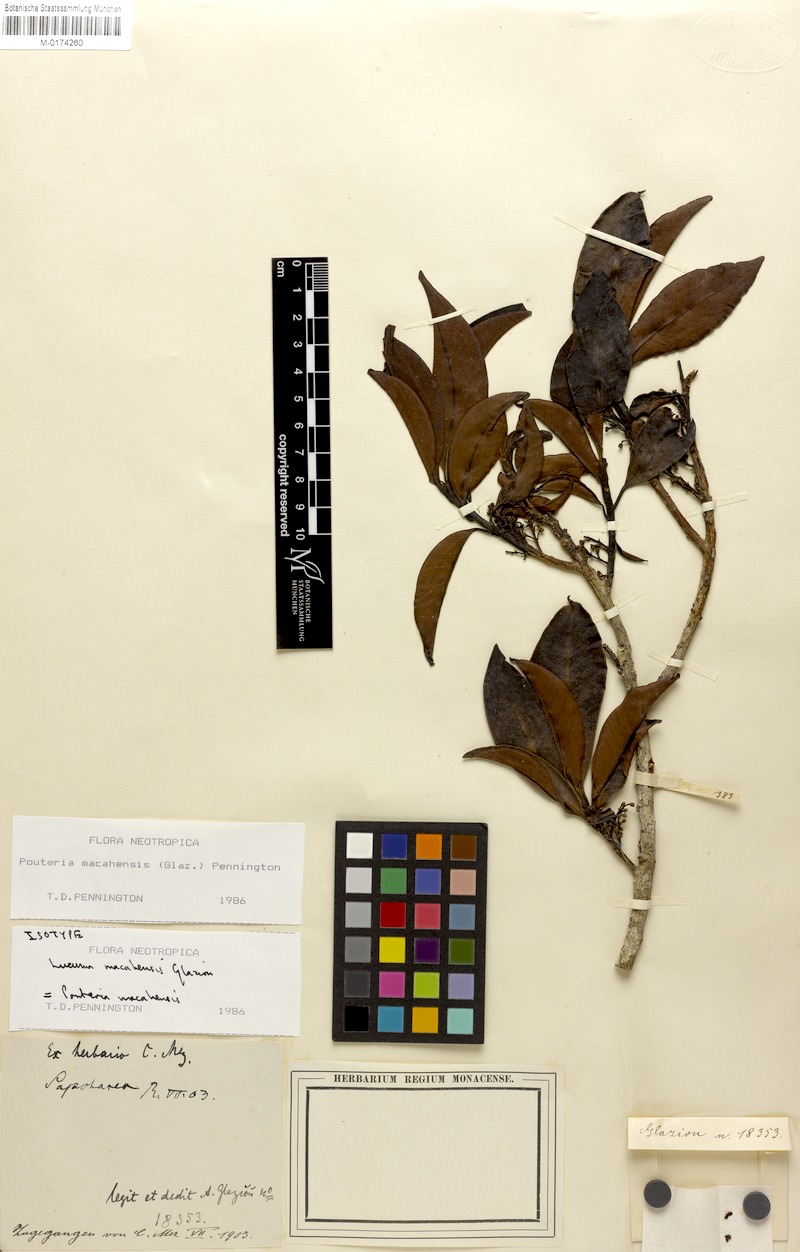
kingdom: Plantae
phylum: Tracheophyta
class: Magnoliopsida
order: Ericales
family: Sapotaceae
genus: Pouteria
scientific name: Pouteria macahensis
